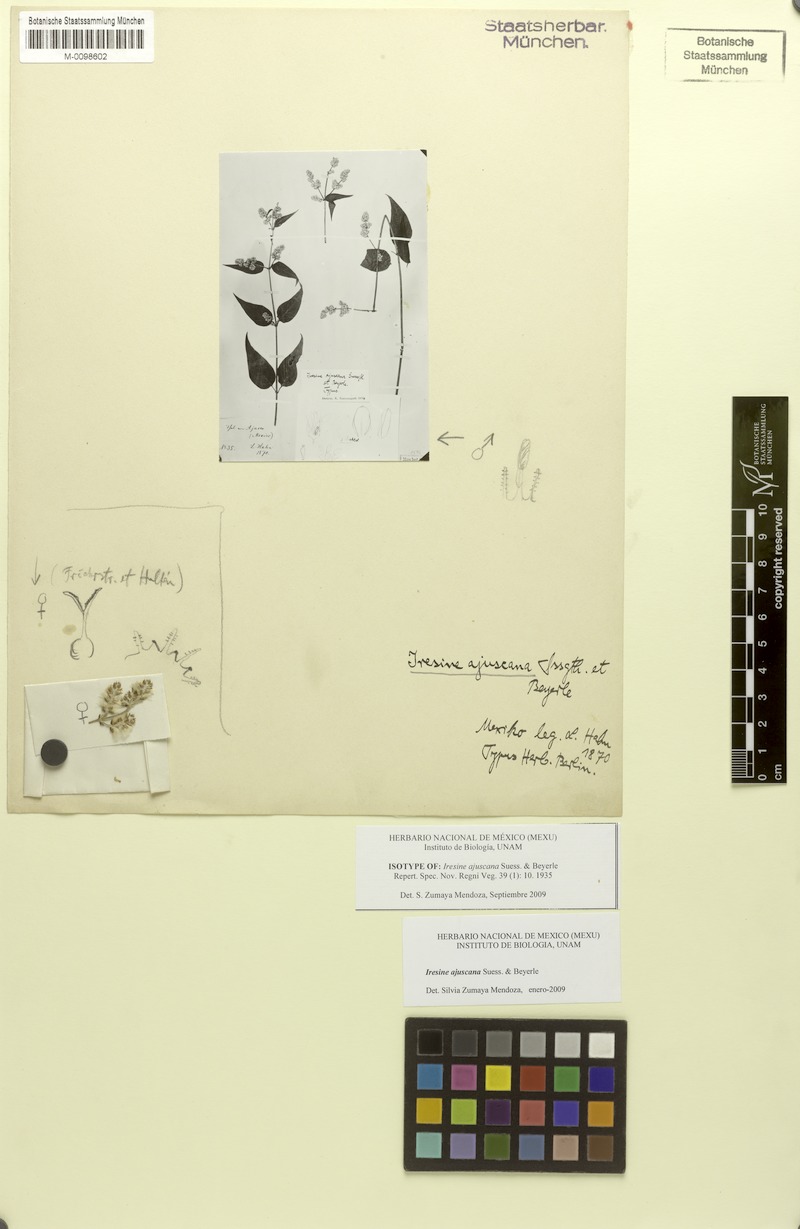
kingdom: Plantae
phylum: Tracheophyta
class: Magnoliopsida
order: Caryophyllales
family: Amaranthaceae
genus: Iresine
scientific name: Iresine ajuscana
